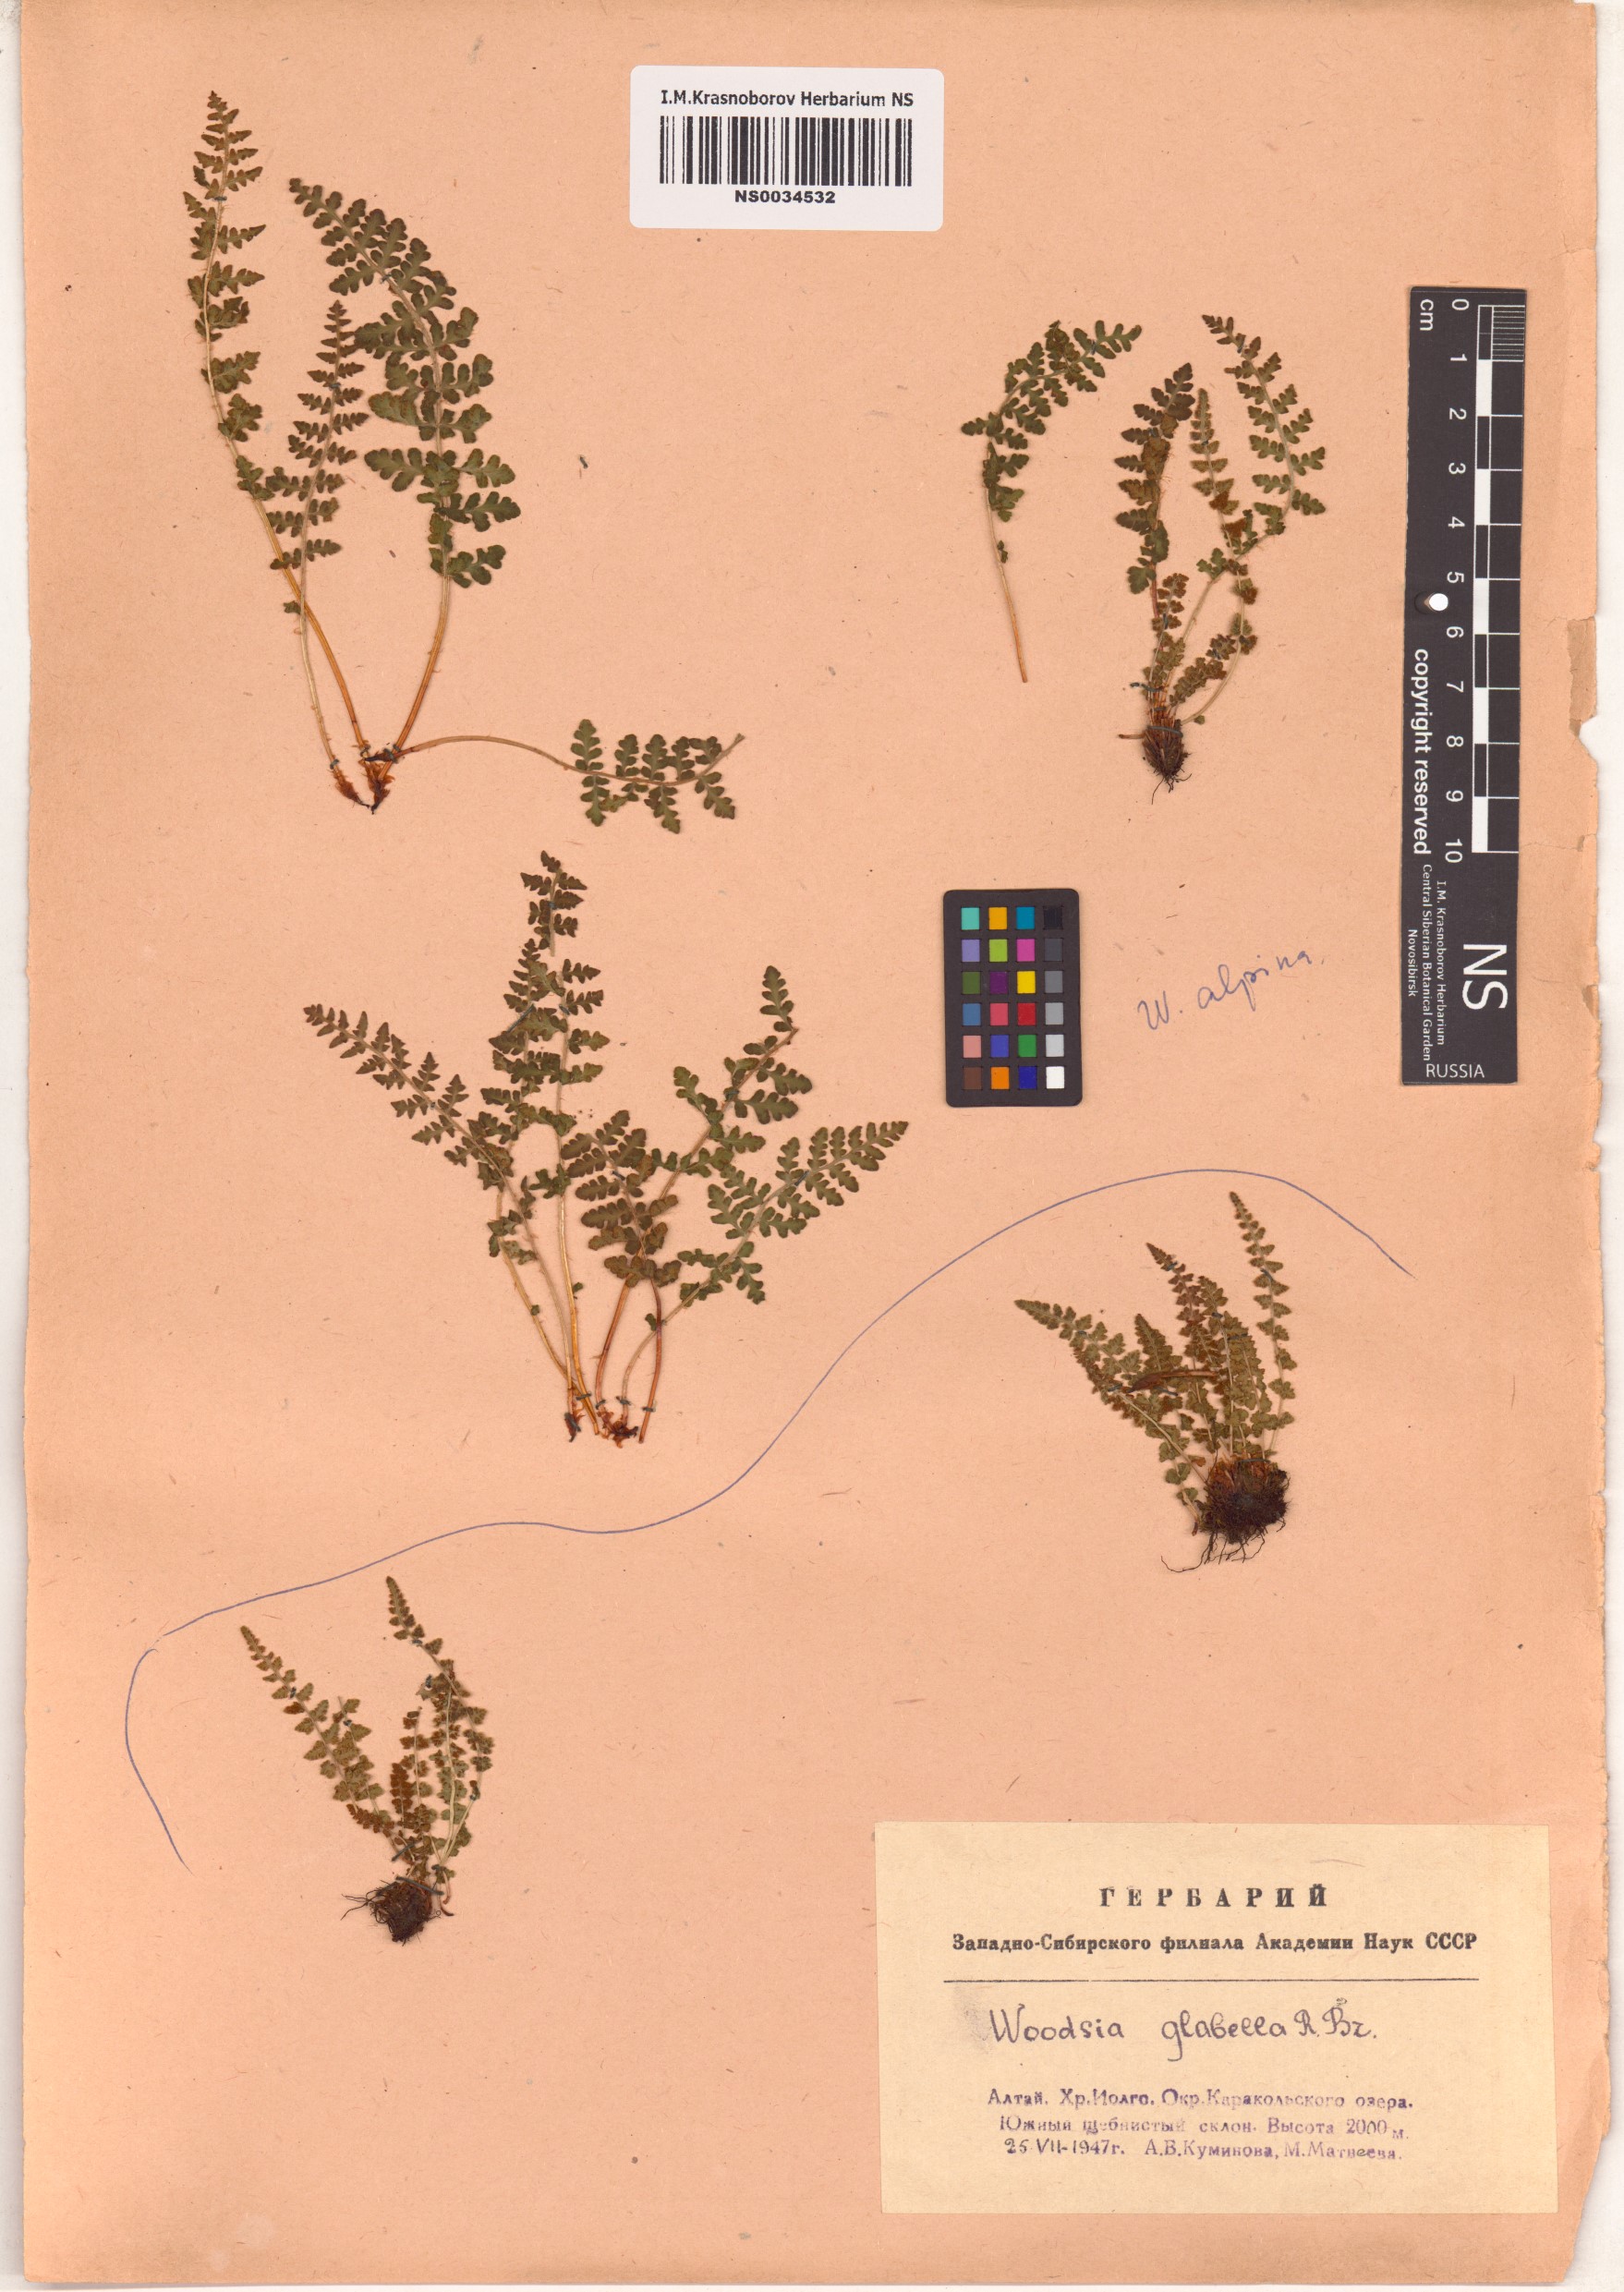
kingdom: Plantae
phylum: Tracheophyta
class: Polypodiopsida
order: Polypodiales
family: Woodsiaceae
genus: Woodsia
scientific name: Woodsia glabella
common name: Smooth woodsia
